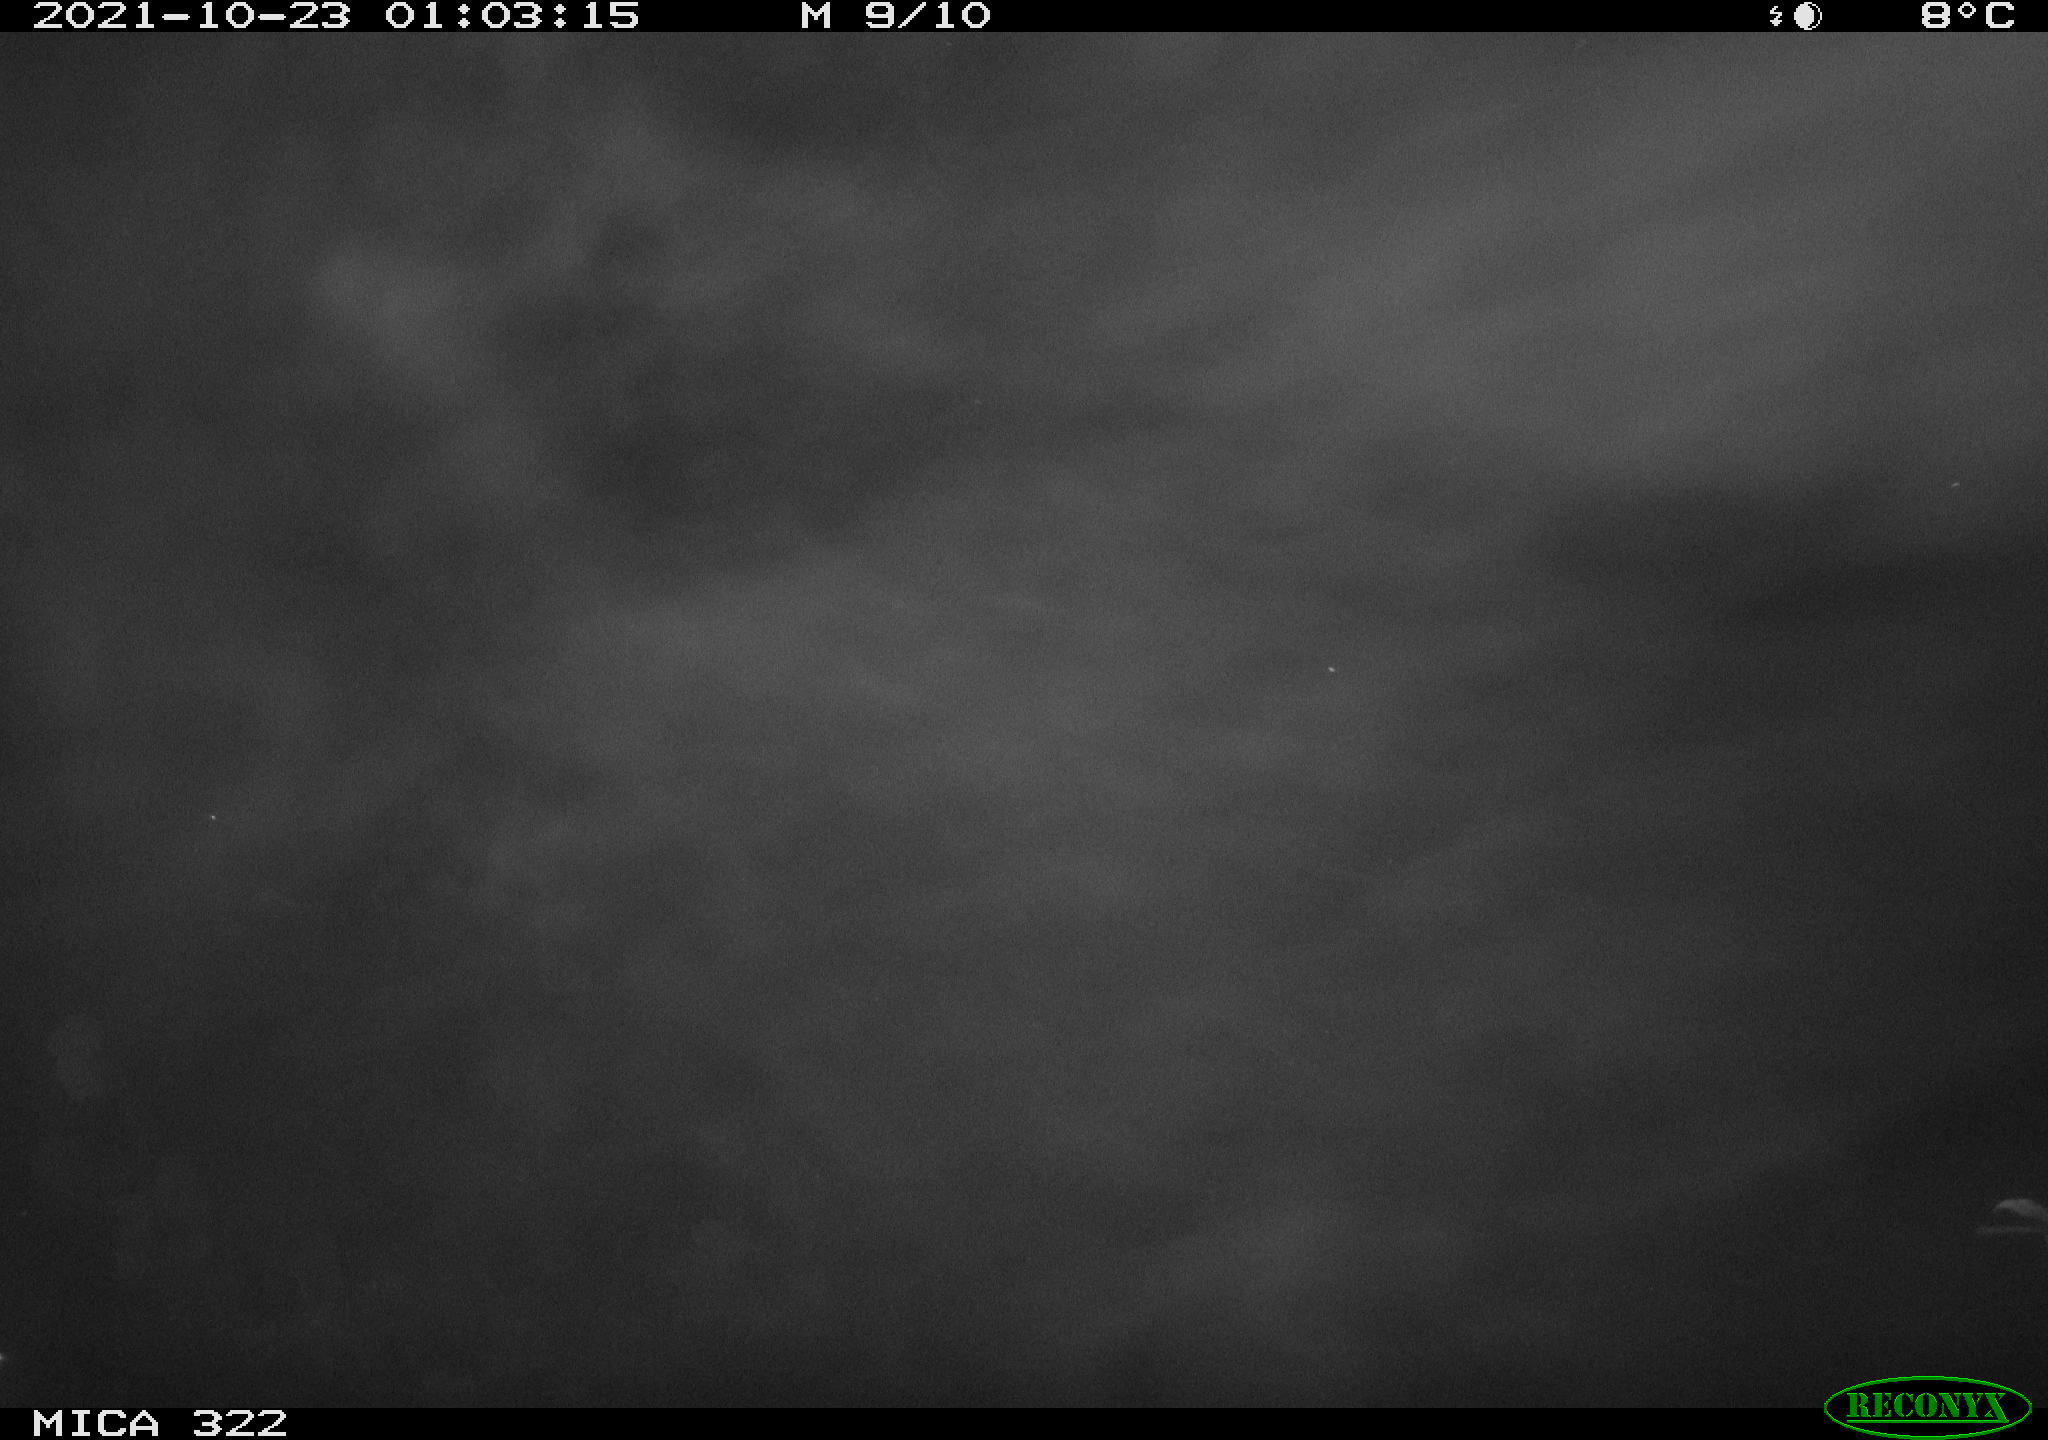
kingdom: Animalia
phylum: Chordata
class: Mammalia
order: Rodentia
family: Muridae
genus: Rattus
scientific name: Rattus norvegicus
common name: Brown rat
